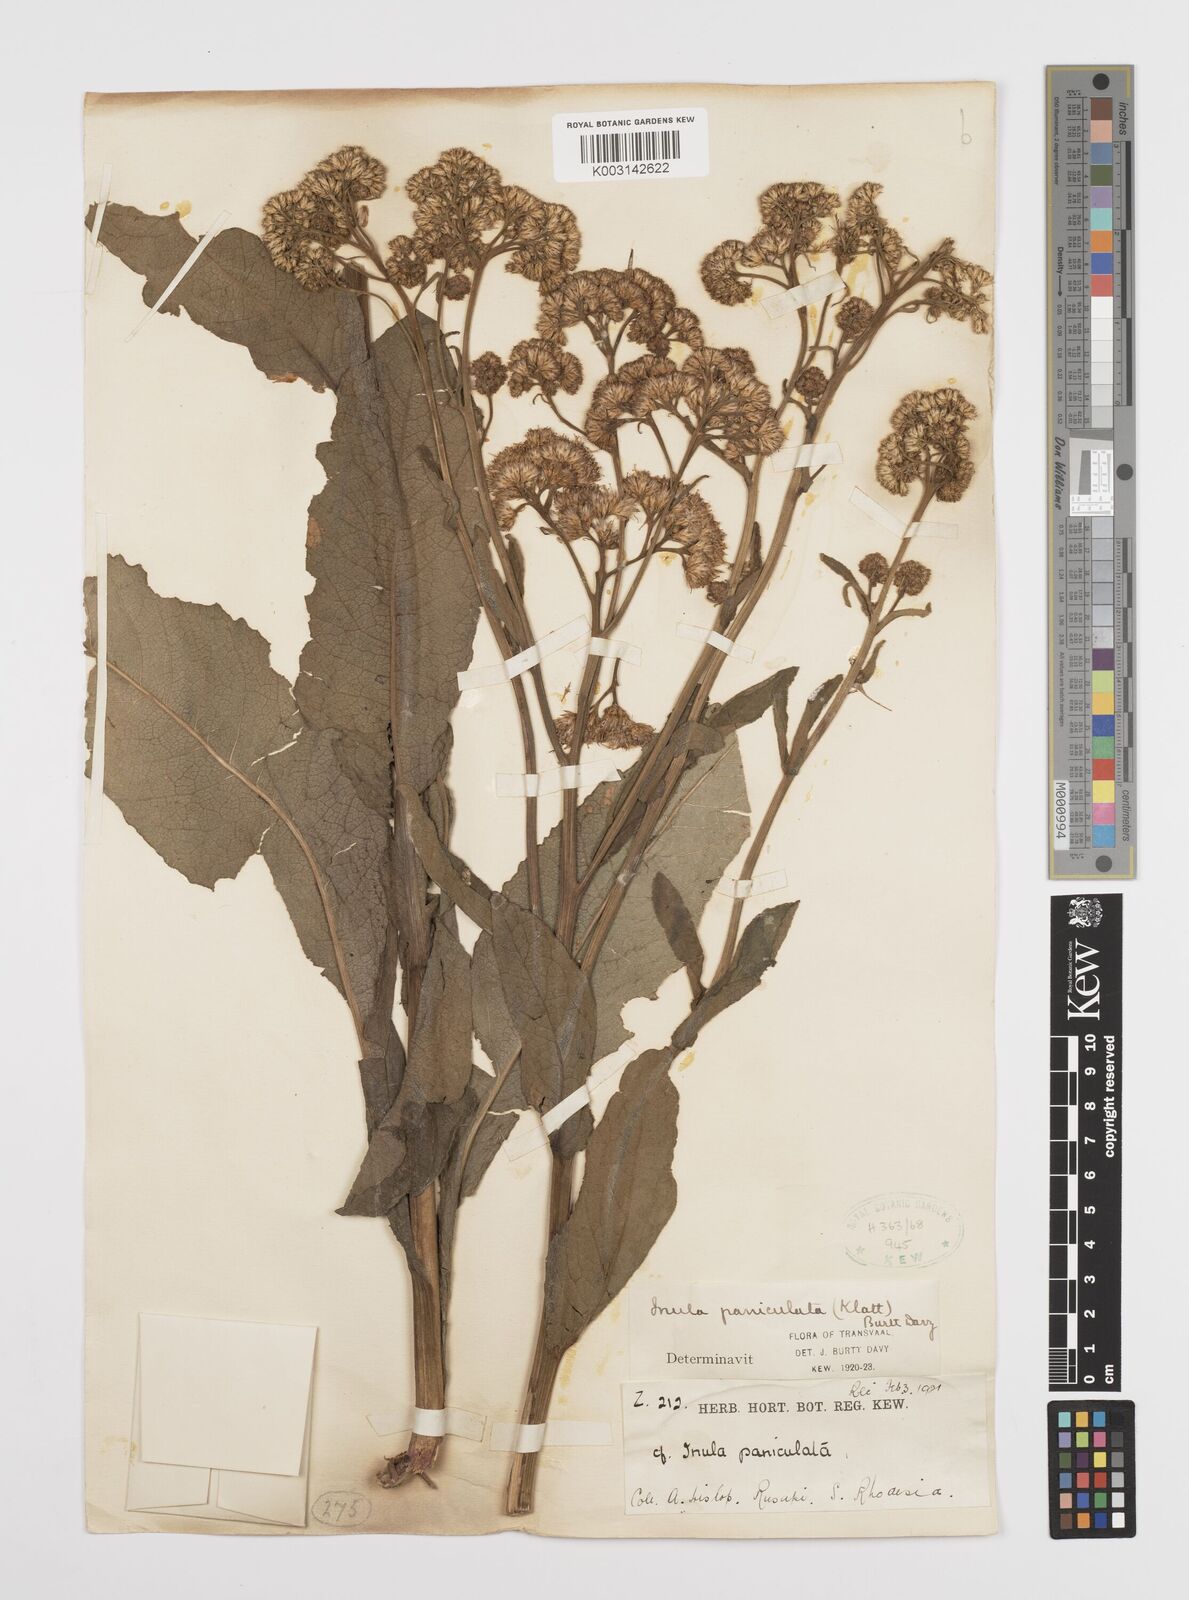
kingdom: Plantae
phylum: Tracheophyta
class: Magnoliopsida
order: Asterales
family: Asteraceae
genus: Monactinocephalus
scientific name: Monactinocephalus paniculatus
